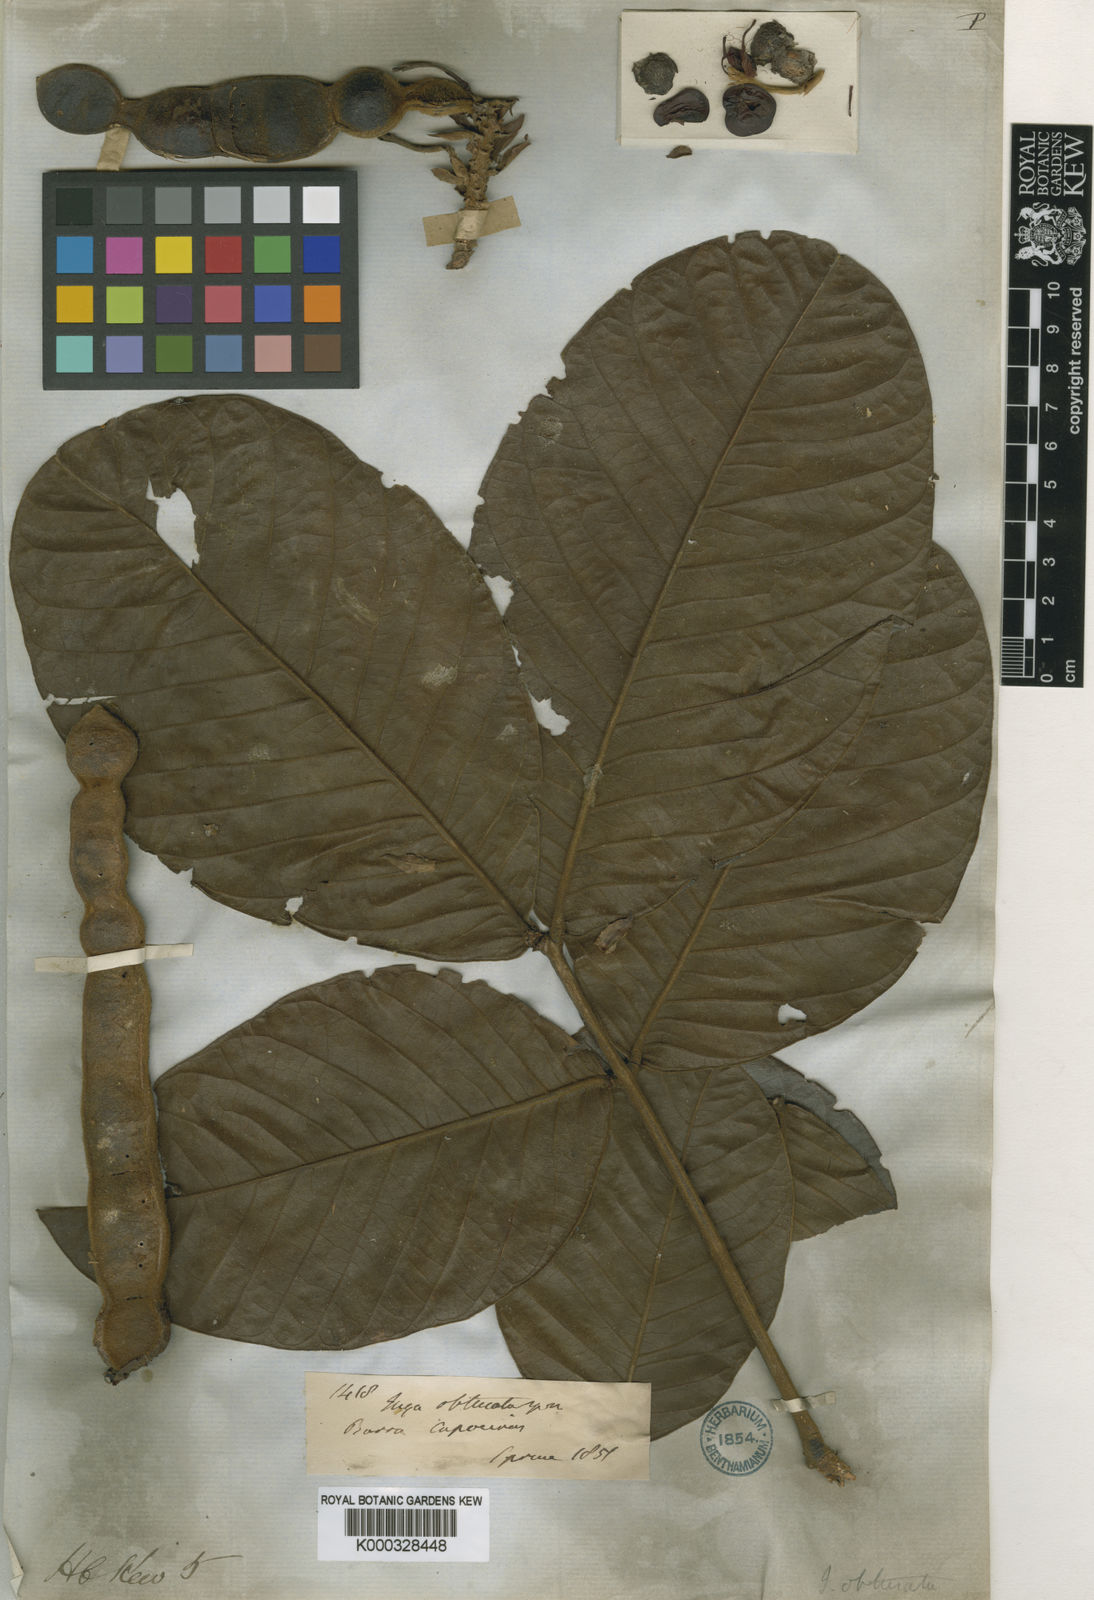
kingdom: Plantae
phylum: Tracheophyta
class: Magnoliopsida
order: Fabales
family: Fabaceae
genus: Inga
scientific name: Inga obtusata
